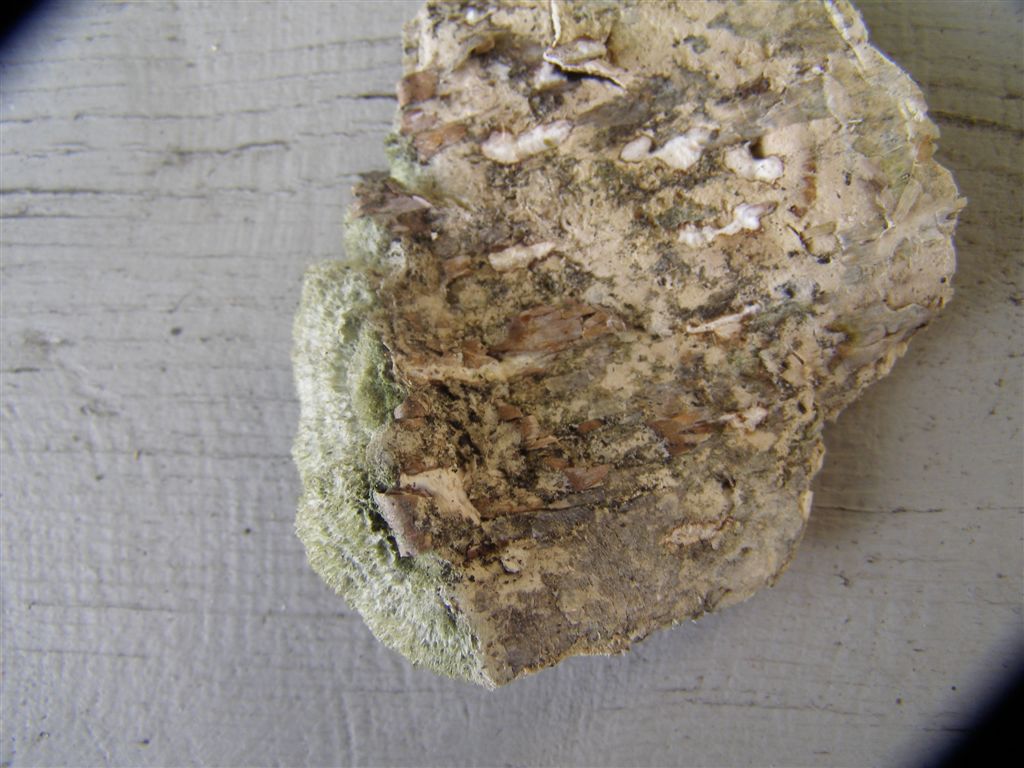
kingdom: Fungi
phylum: Basidiomycota
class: Agaricomycetes
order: Polyporales
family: Cerrenaceae
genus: Cerrena
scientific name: Cerrena unicolor
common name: ensfarvet læderporesvamp
